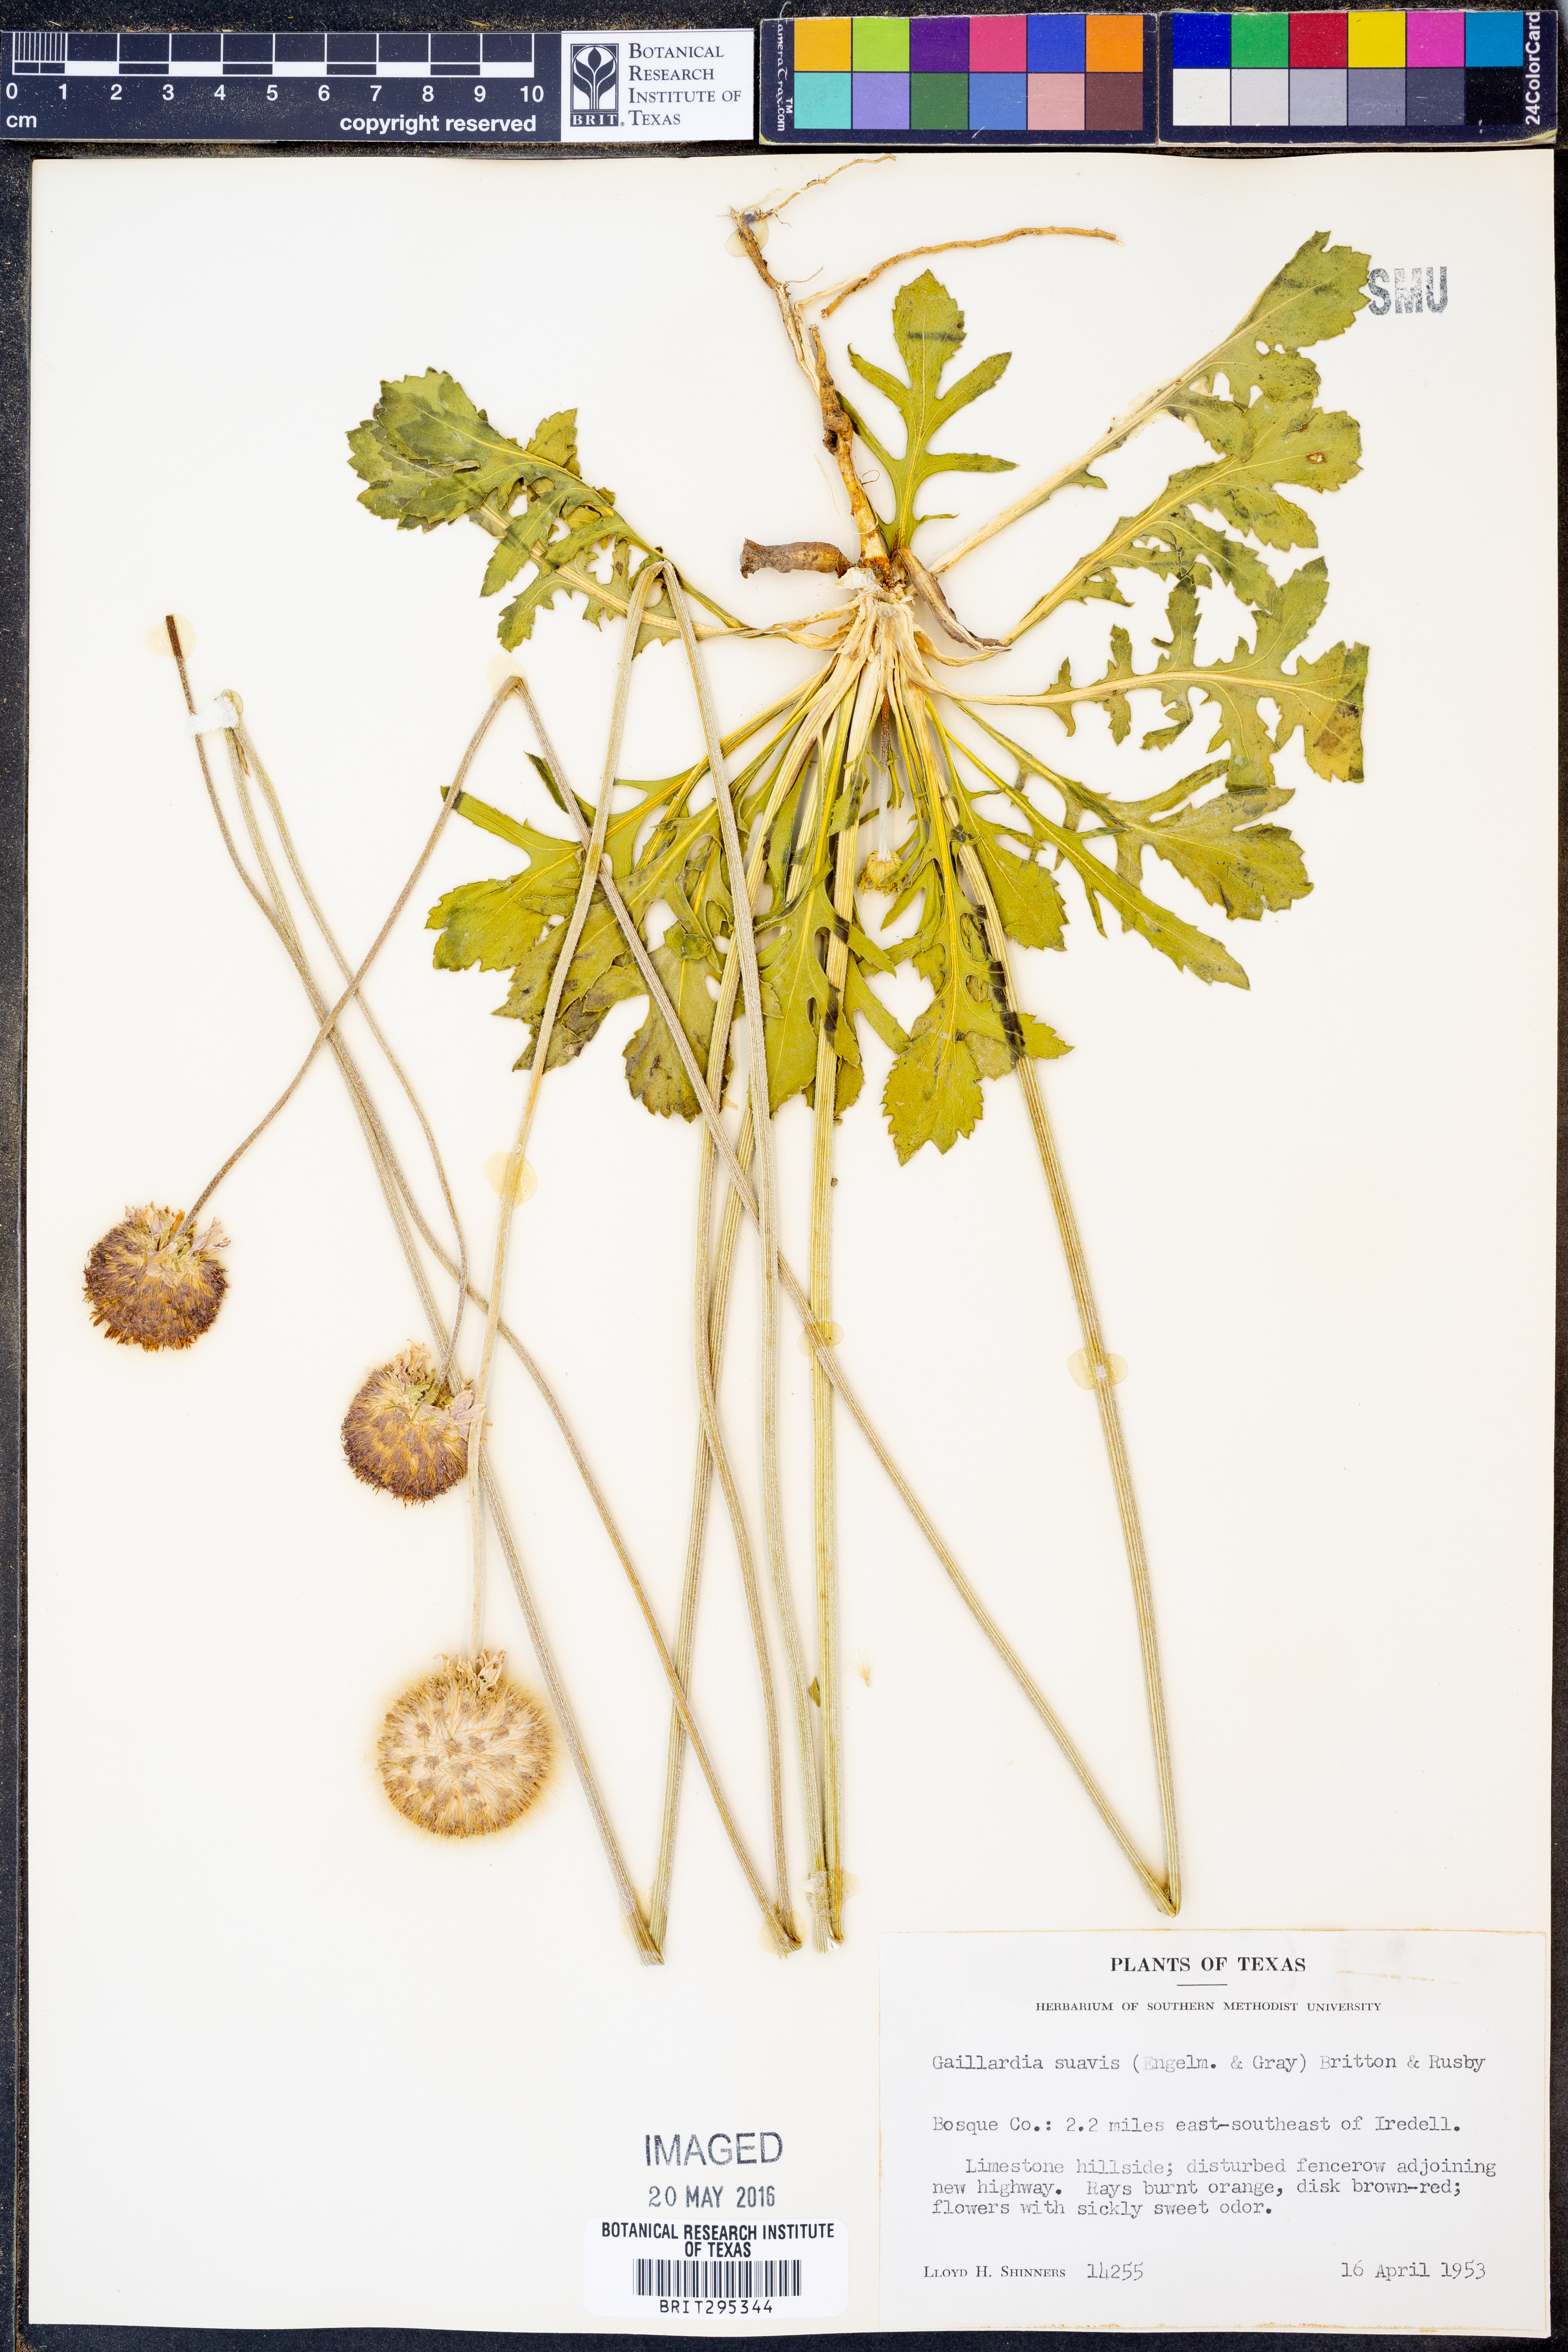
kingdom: Plantae
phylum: Tracheophyta
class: Magnoliopsida
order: Asterales
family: Asteraceae
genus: Gaillardia
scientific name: Gaillardia suavis
